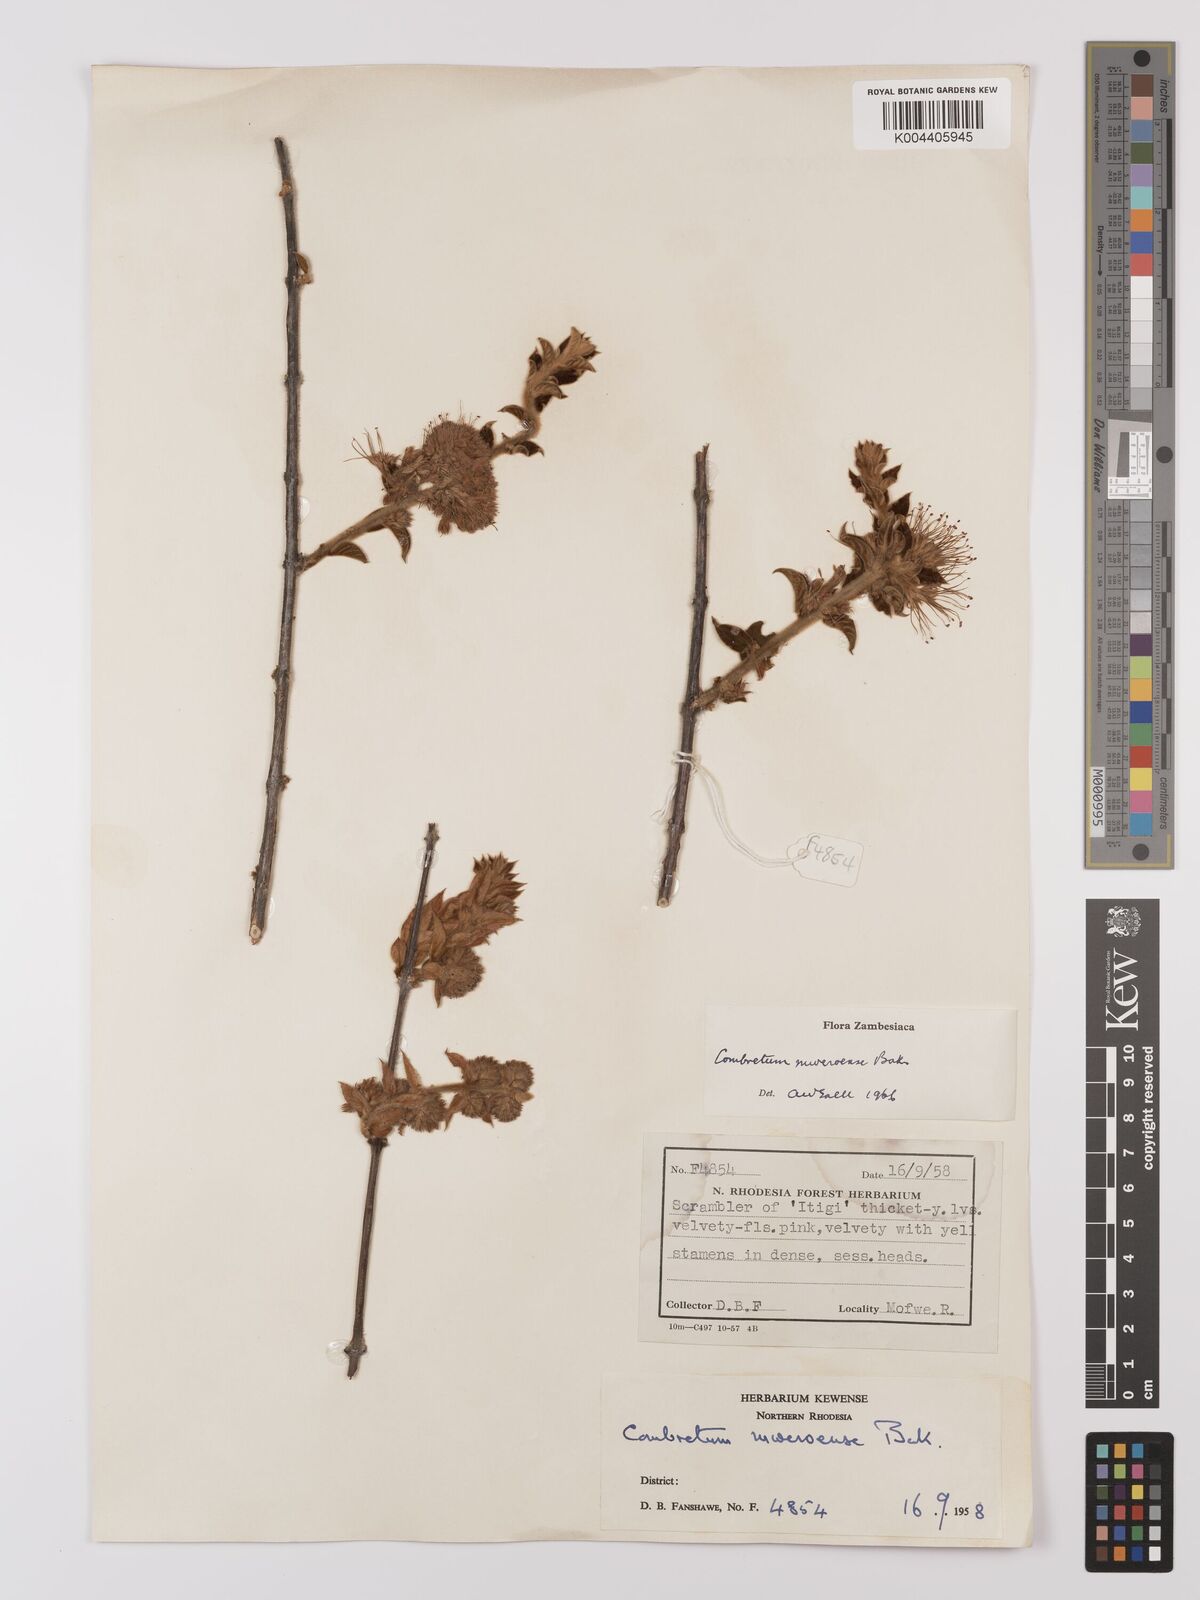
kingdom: Plantae
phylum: Tracheophyta
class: Magnoliopsida
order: Myrtales
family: Combretaceae
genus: Combretum
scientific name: Combretum mweroense
